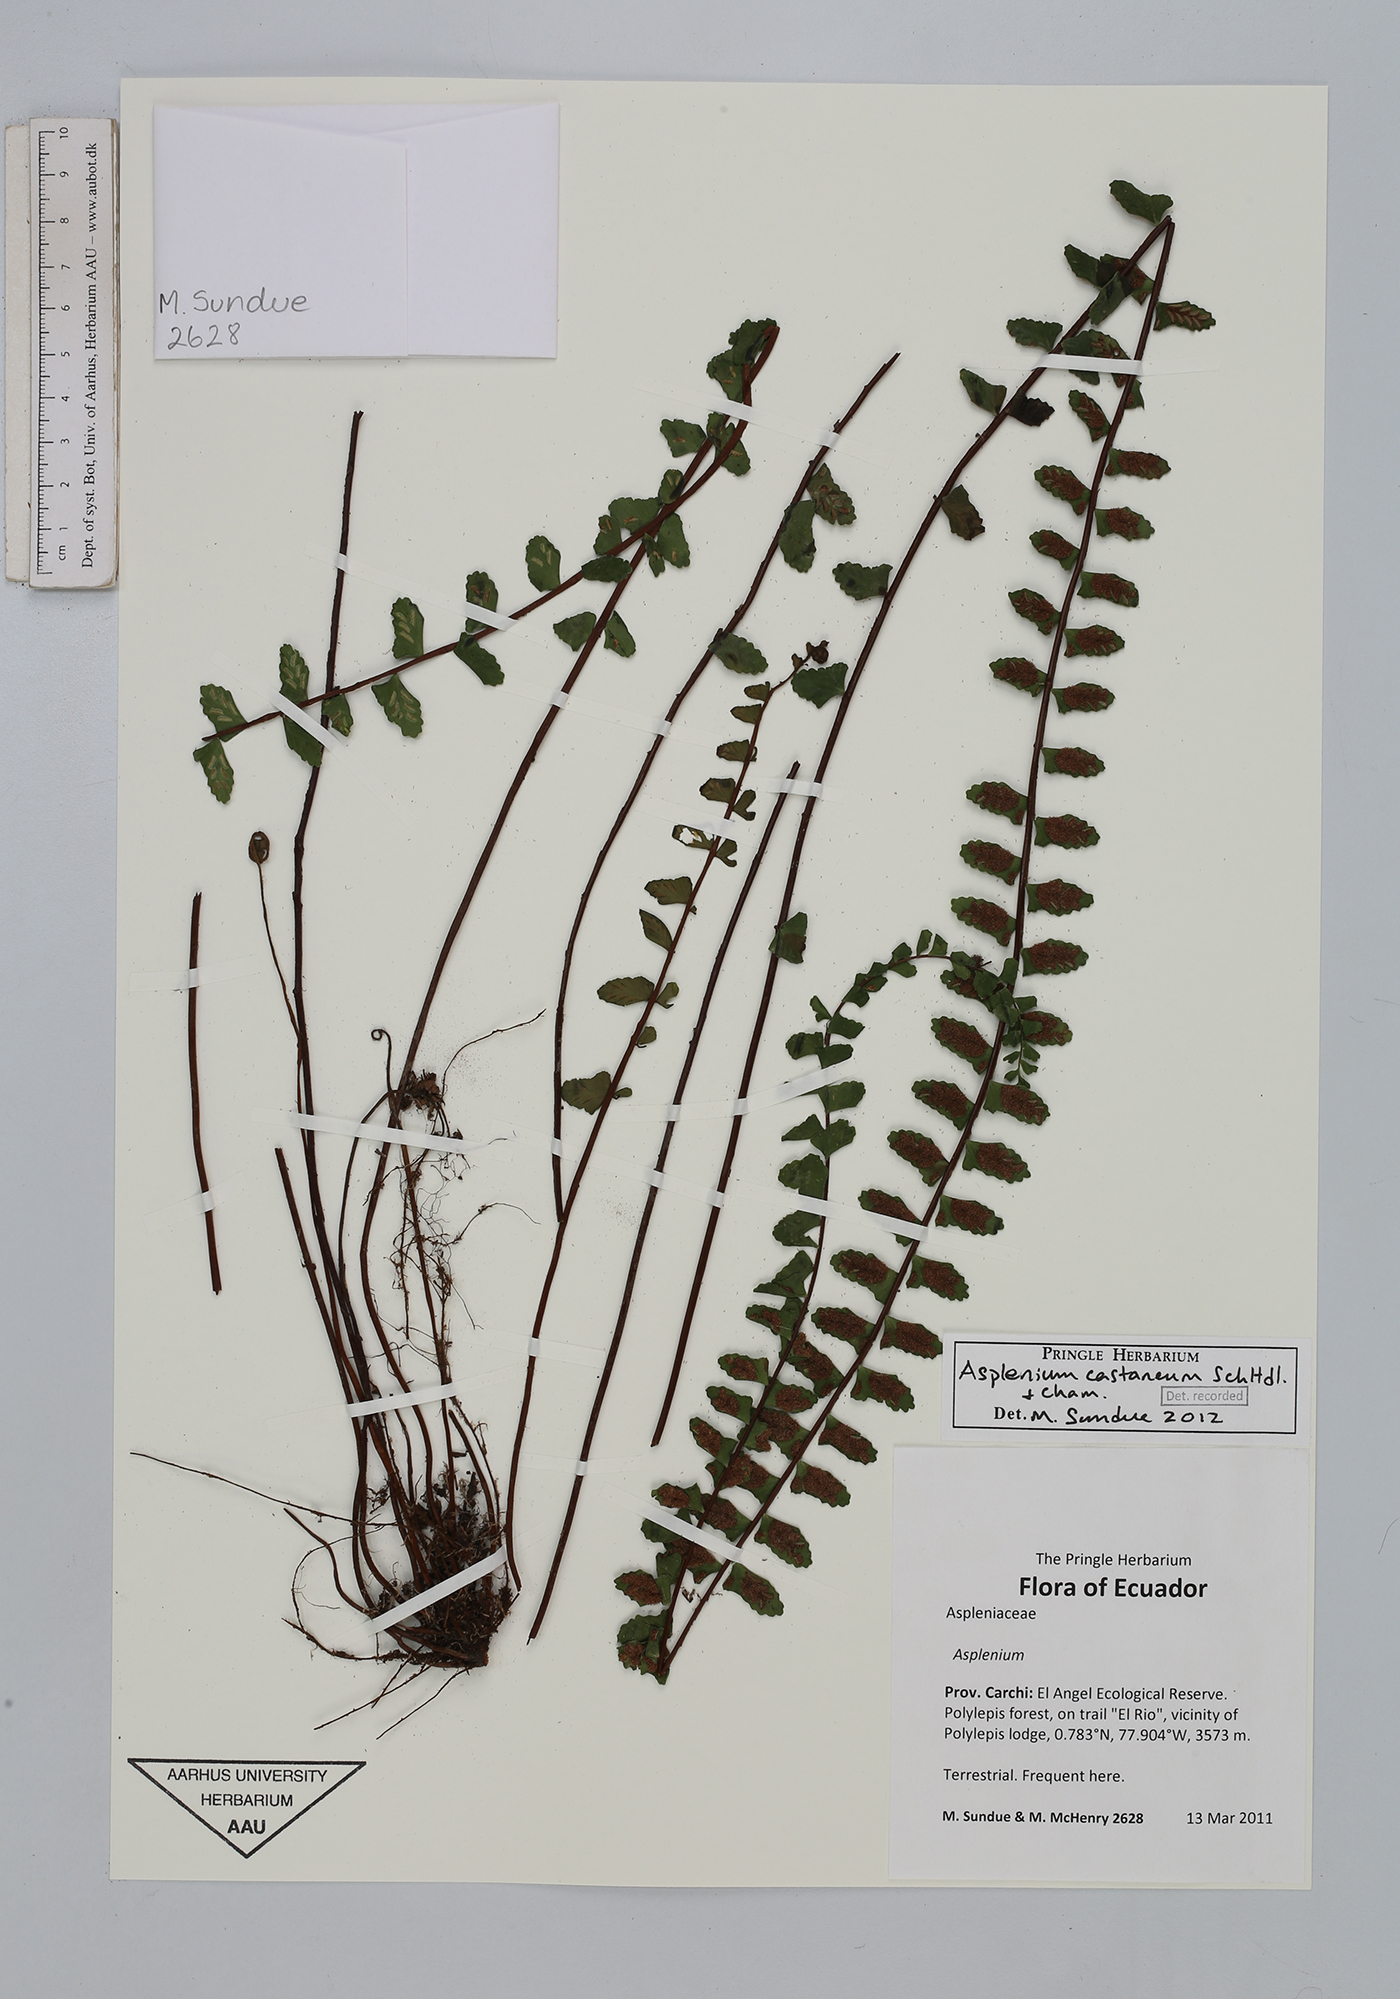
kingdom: Plantae
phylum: Tracheophyta
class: Polypodiopsida
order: Polypodiales
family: Aspleniaceae
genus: Asplenium
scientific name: Asplenium castaneum
